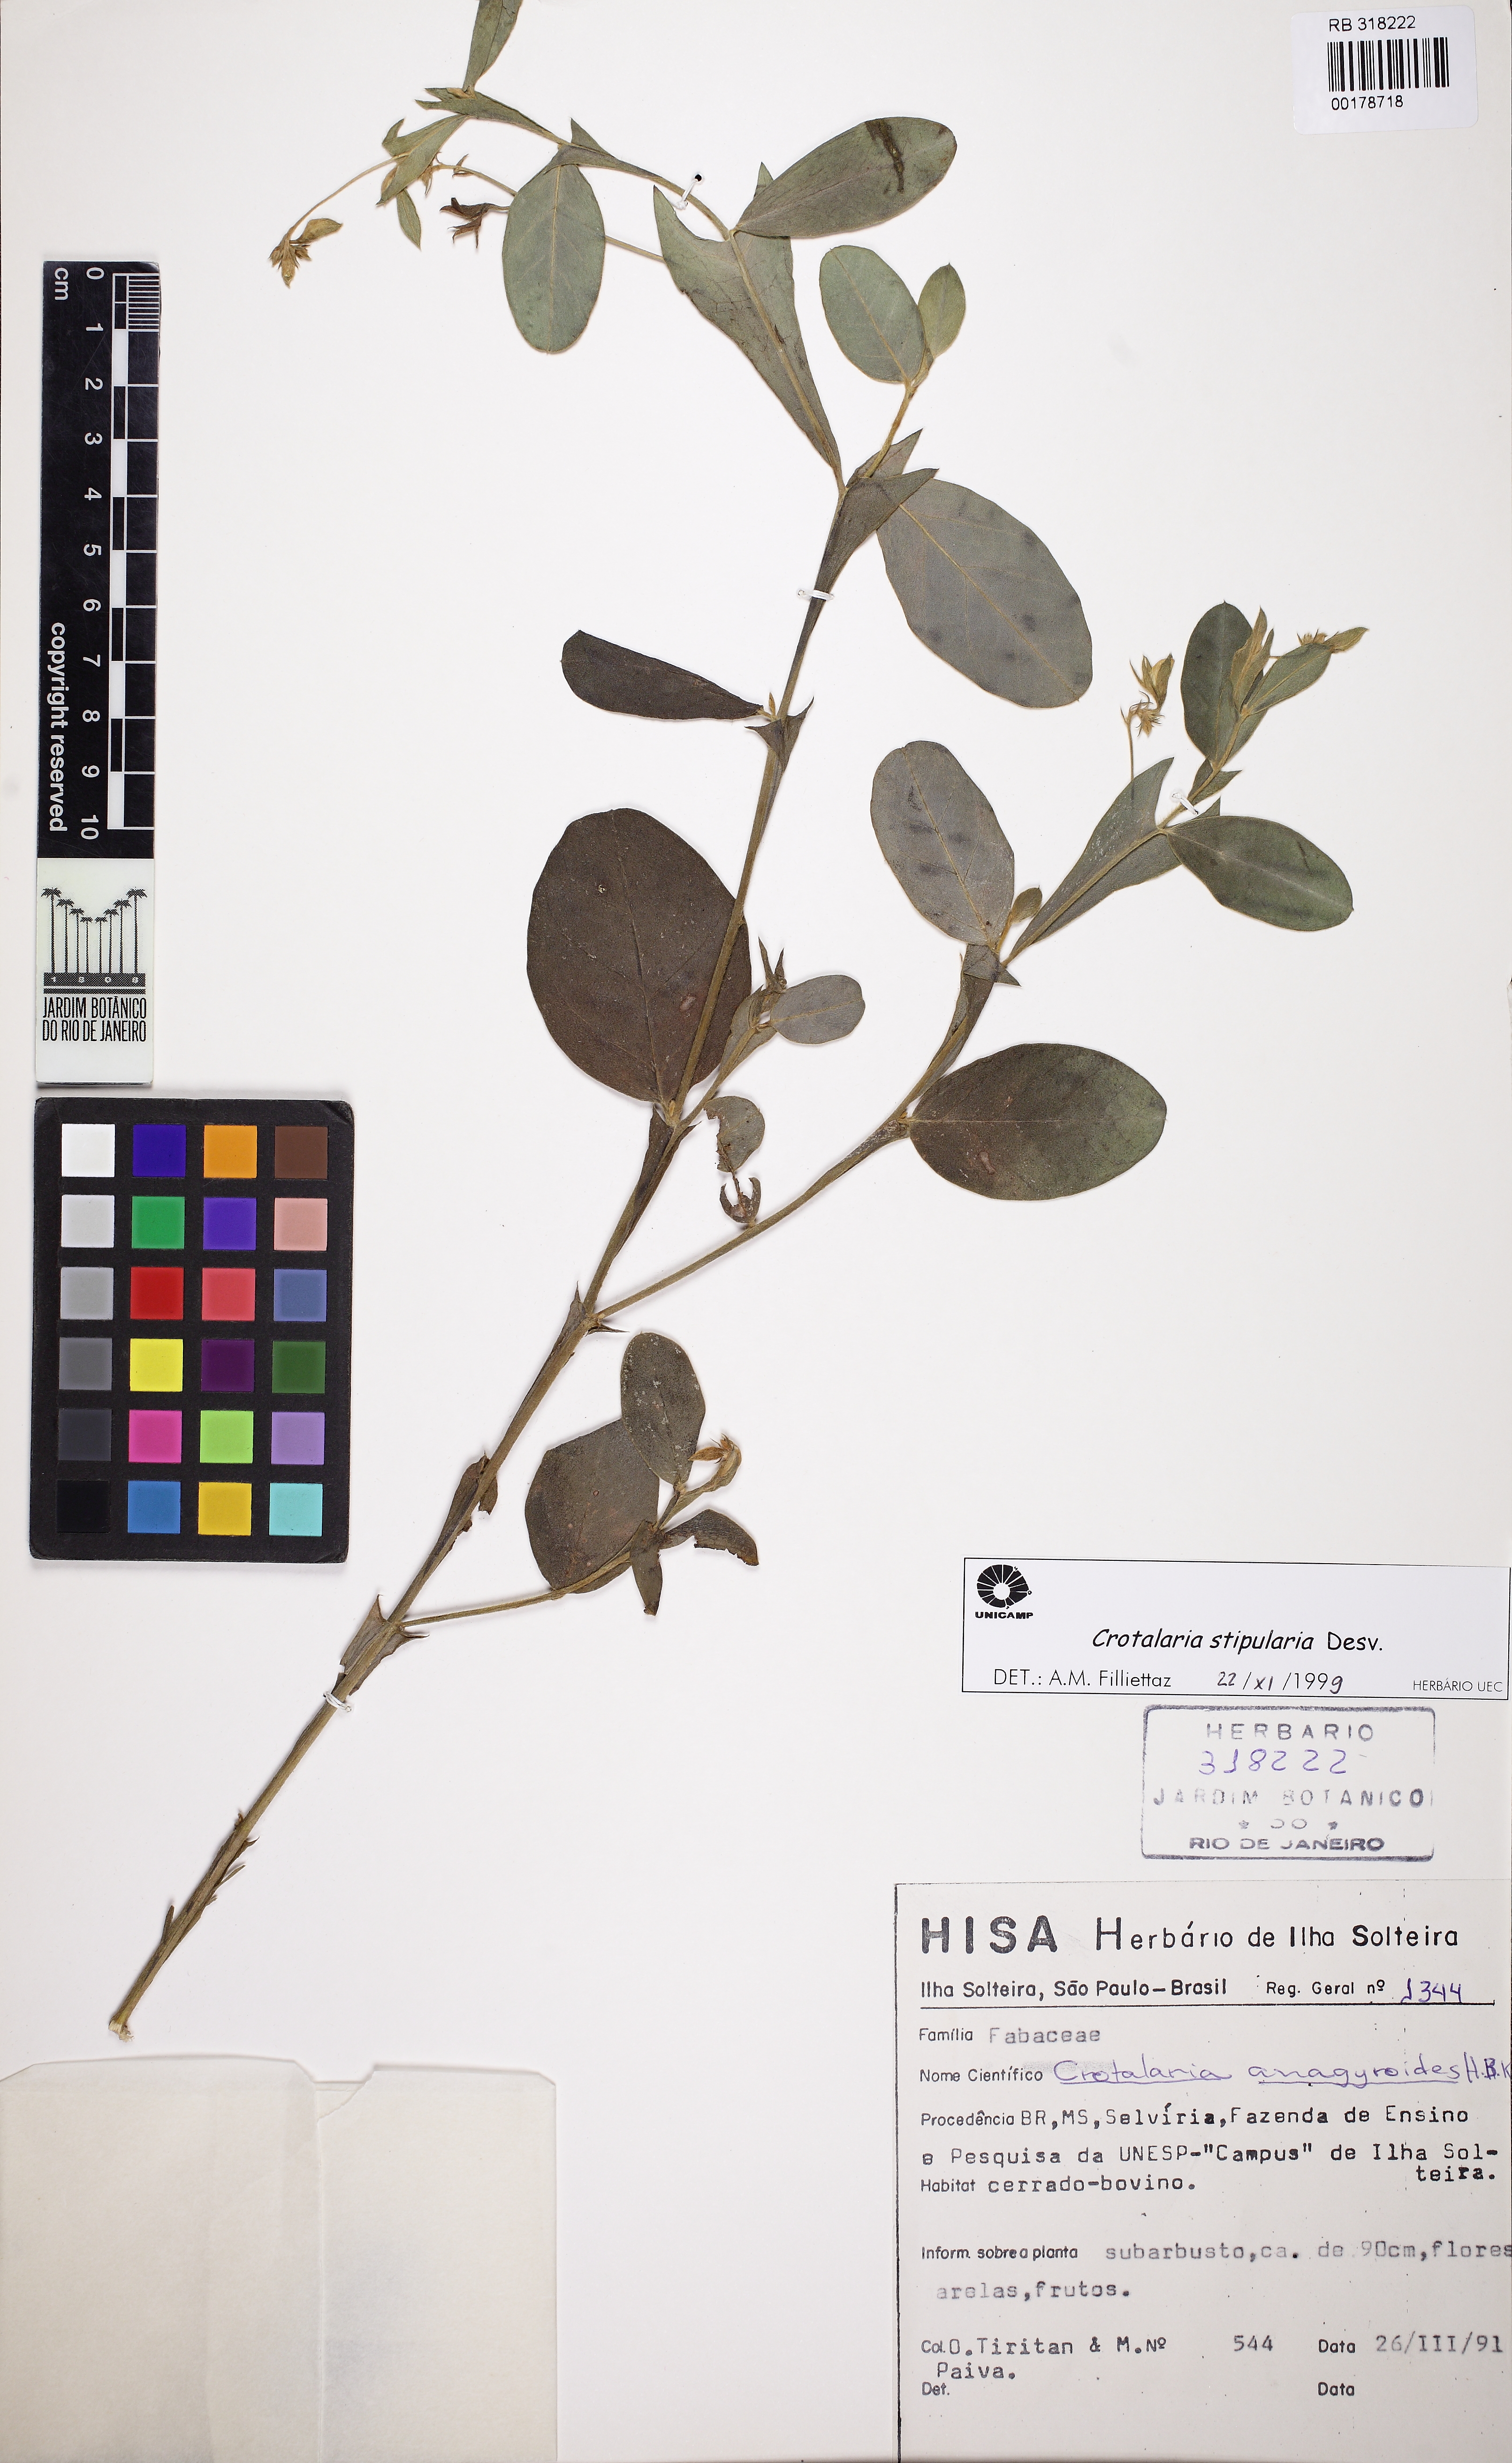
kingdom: Plantae
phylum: Tracheophyta
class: Magnoliopsida
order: Fabales
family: Fabaceae
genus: Crotalaria
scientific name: Crotalaria stipularia
